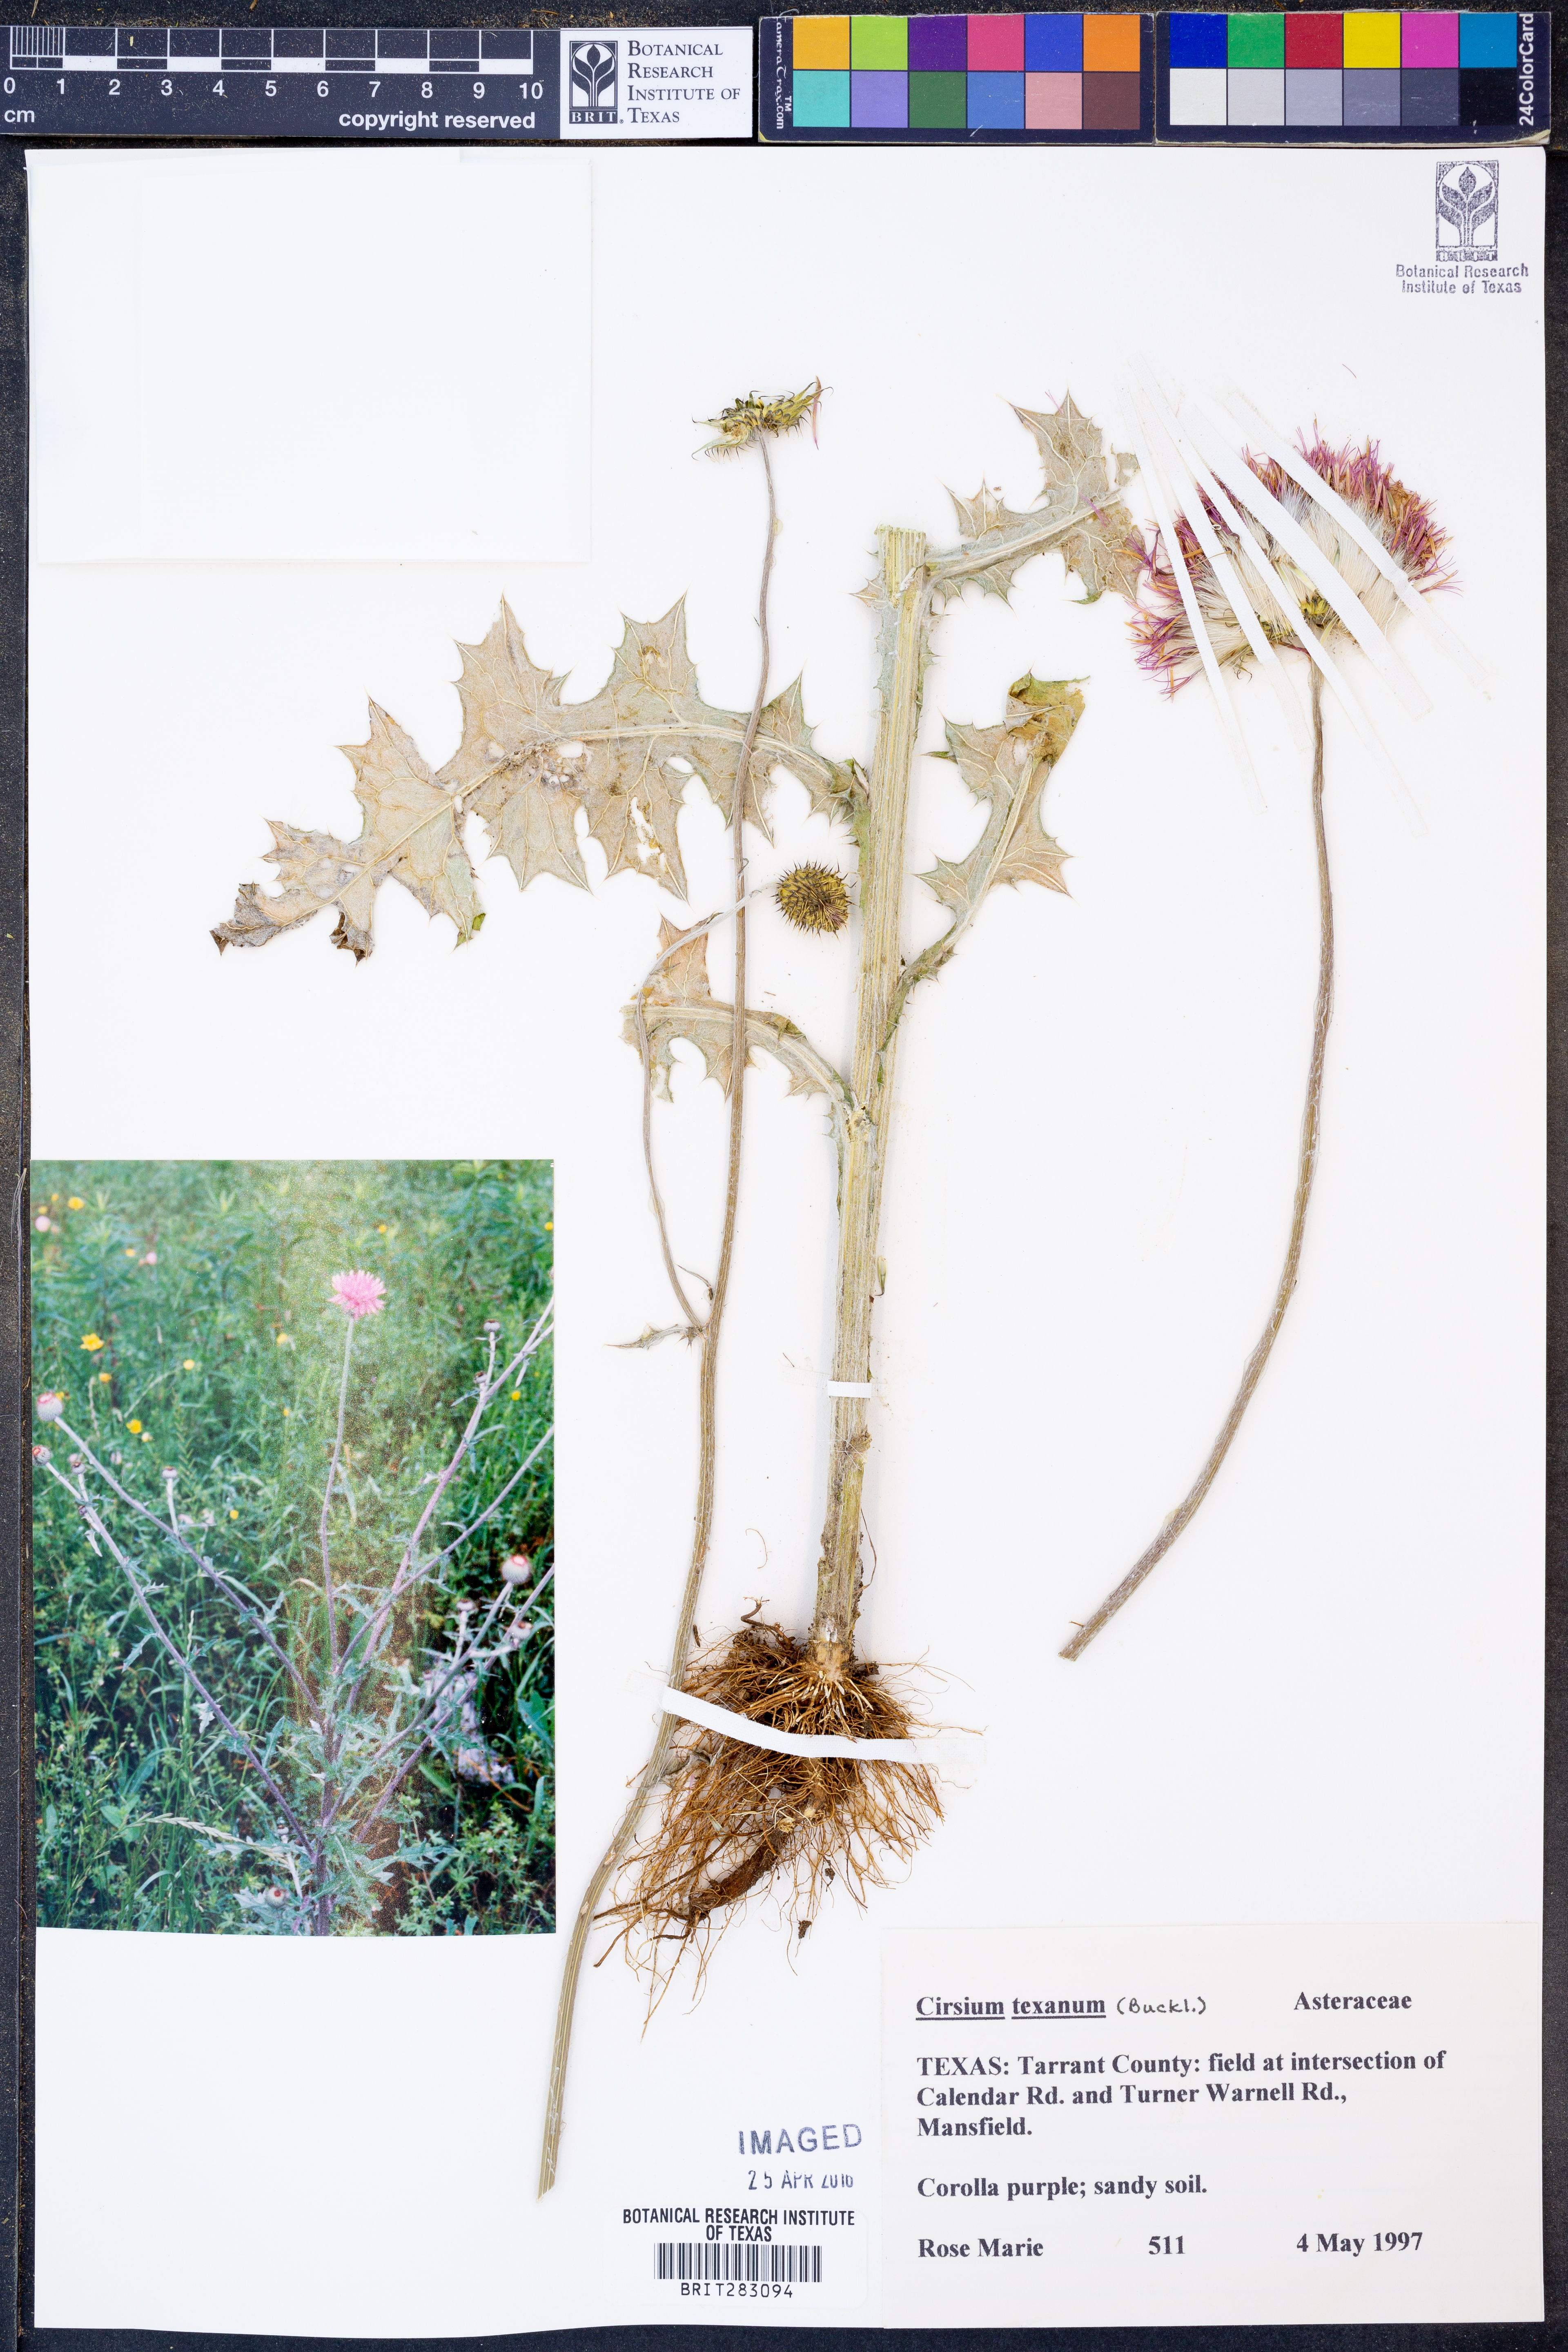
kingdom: Plantae
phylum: Tracheophyta
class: Magnoliopsida
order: Asterales
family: Asteraceae
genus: Cirsium
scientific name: Cirsium texanum
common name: Texas purple thistle
